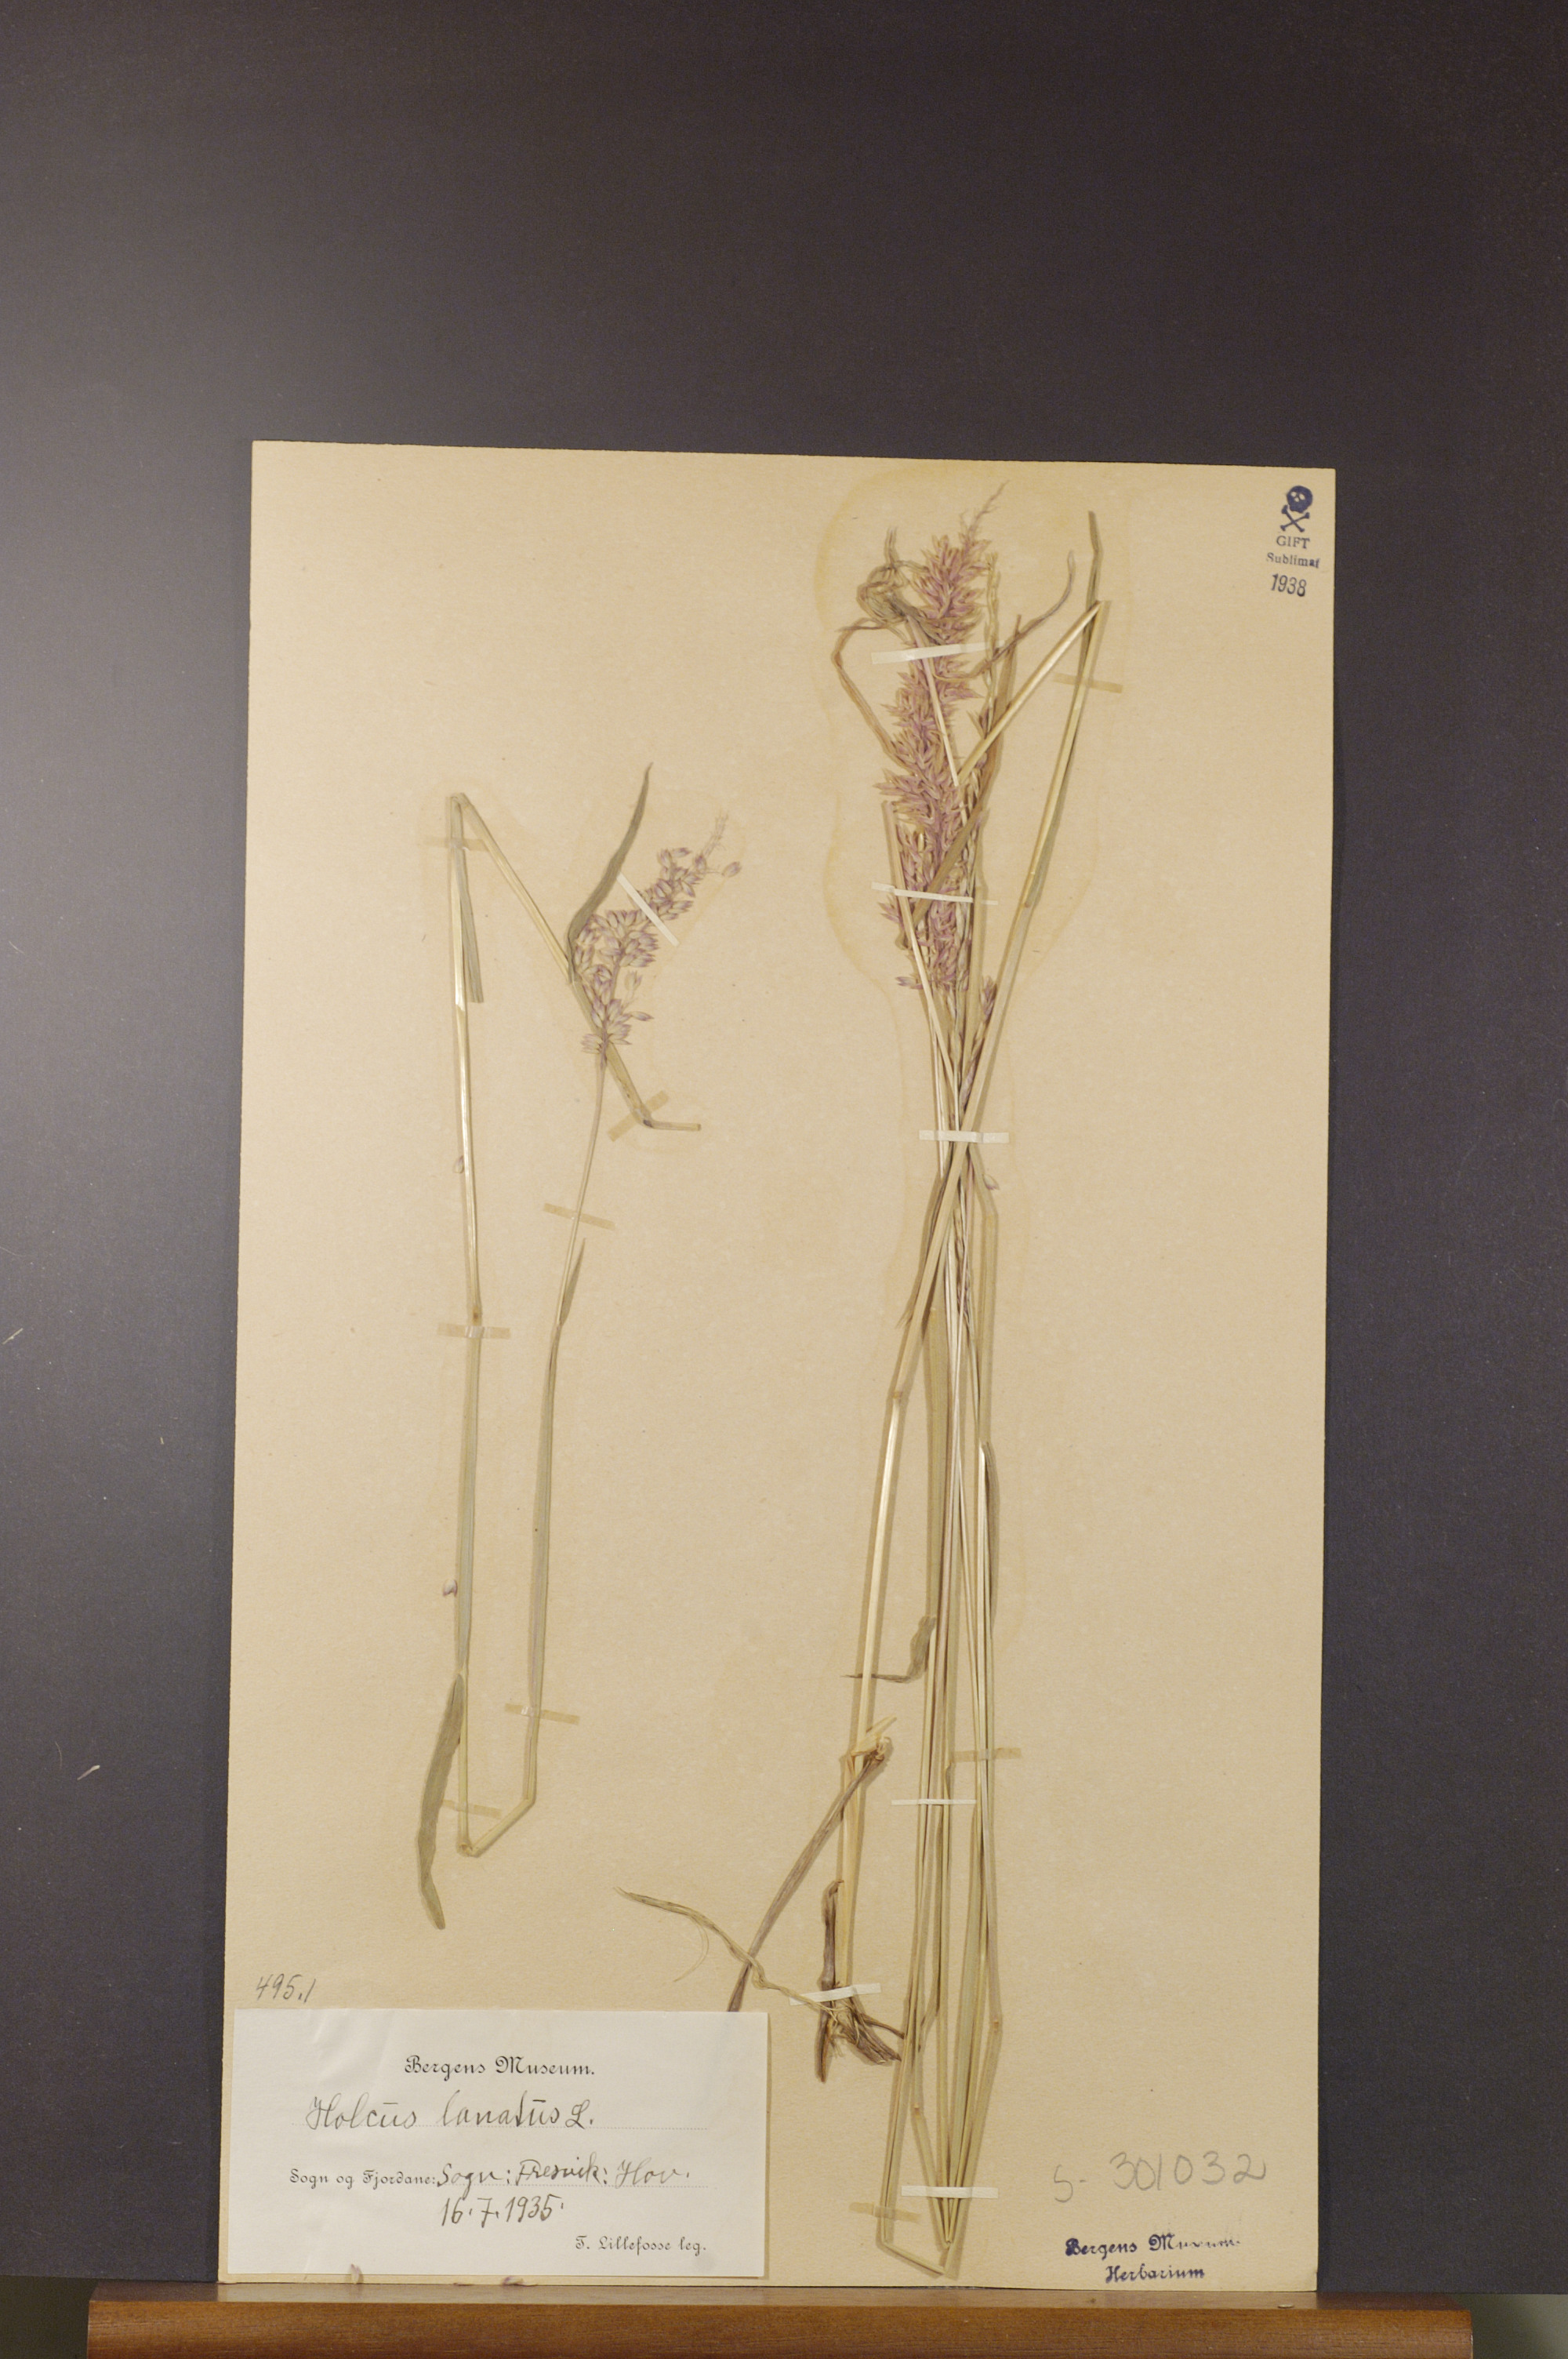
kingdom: Plantae
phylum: Tracheophyta
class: Liliopsida
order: Poales
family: Poaceae
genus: Holcus
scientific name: Holcus lanatus
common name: Yorkshire-fog
